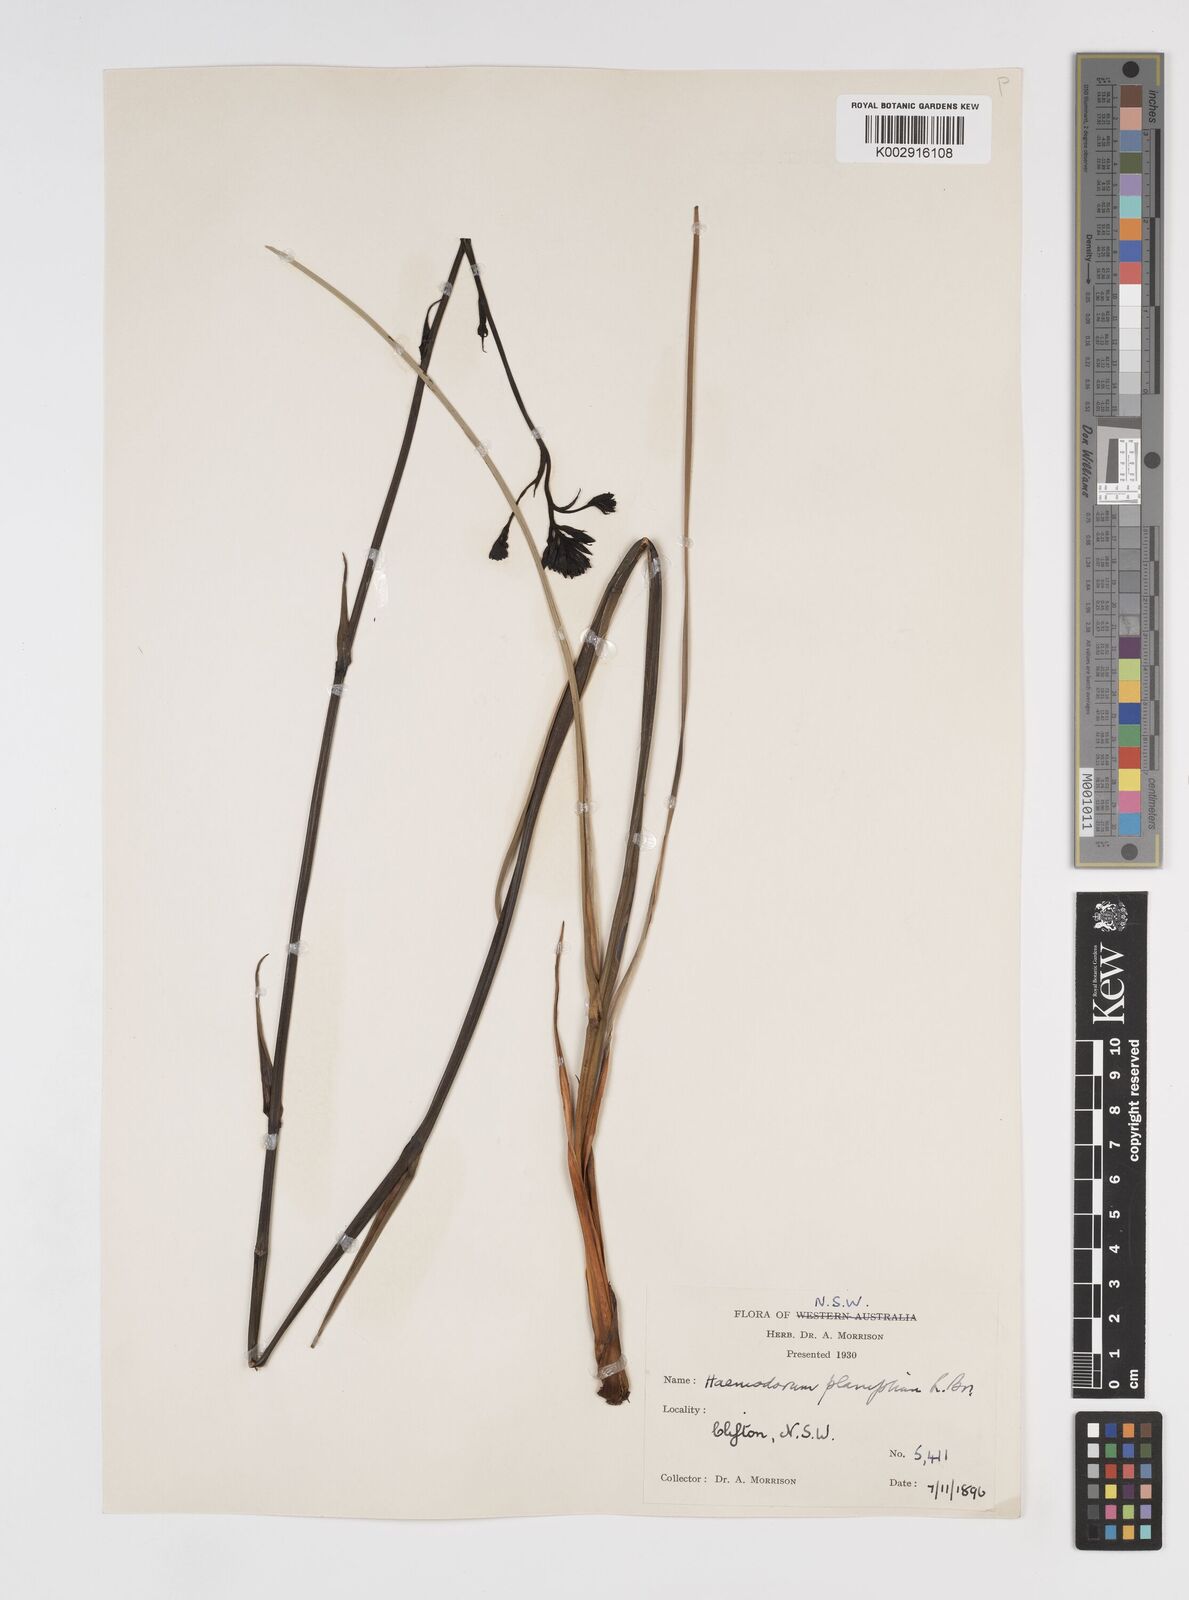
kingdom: Plantae
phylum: Tracheophyta
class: Liliopsida
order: Commelinales
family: Haemodoraceae
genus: Haemodorum
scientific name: Haemodorum planifolium
